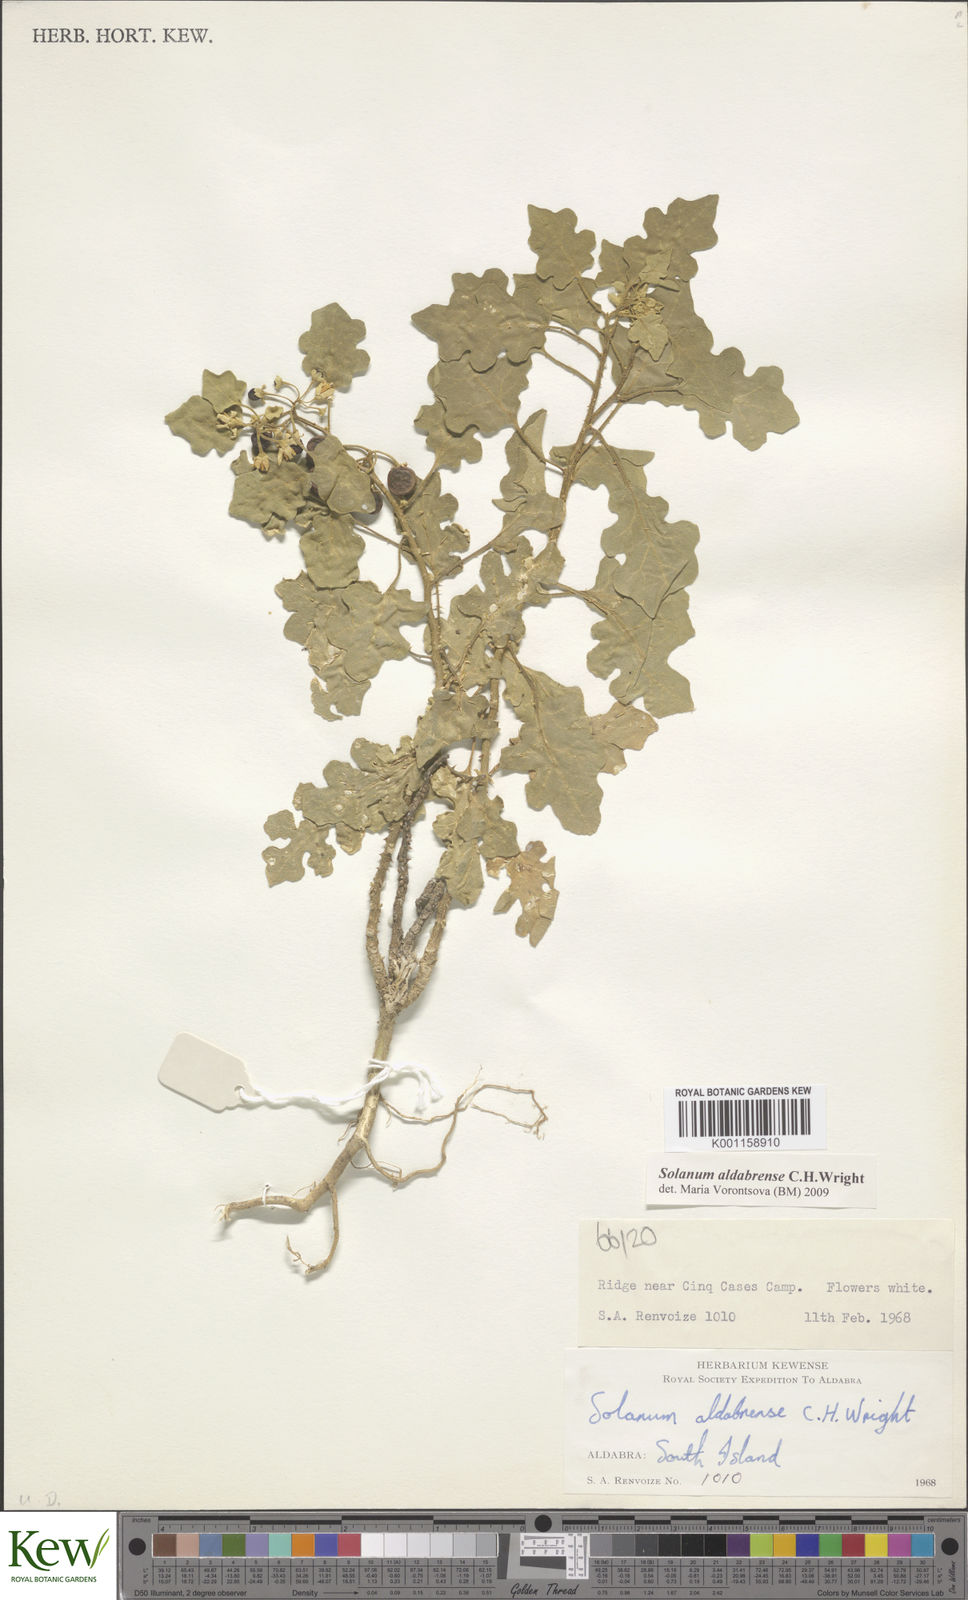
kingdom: Plantae
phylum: Tracheophyta
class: Magnoliopsida
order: Solanales
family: Solanaceae
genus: Solanum
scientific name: Solanum aldabrense
